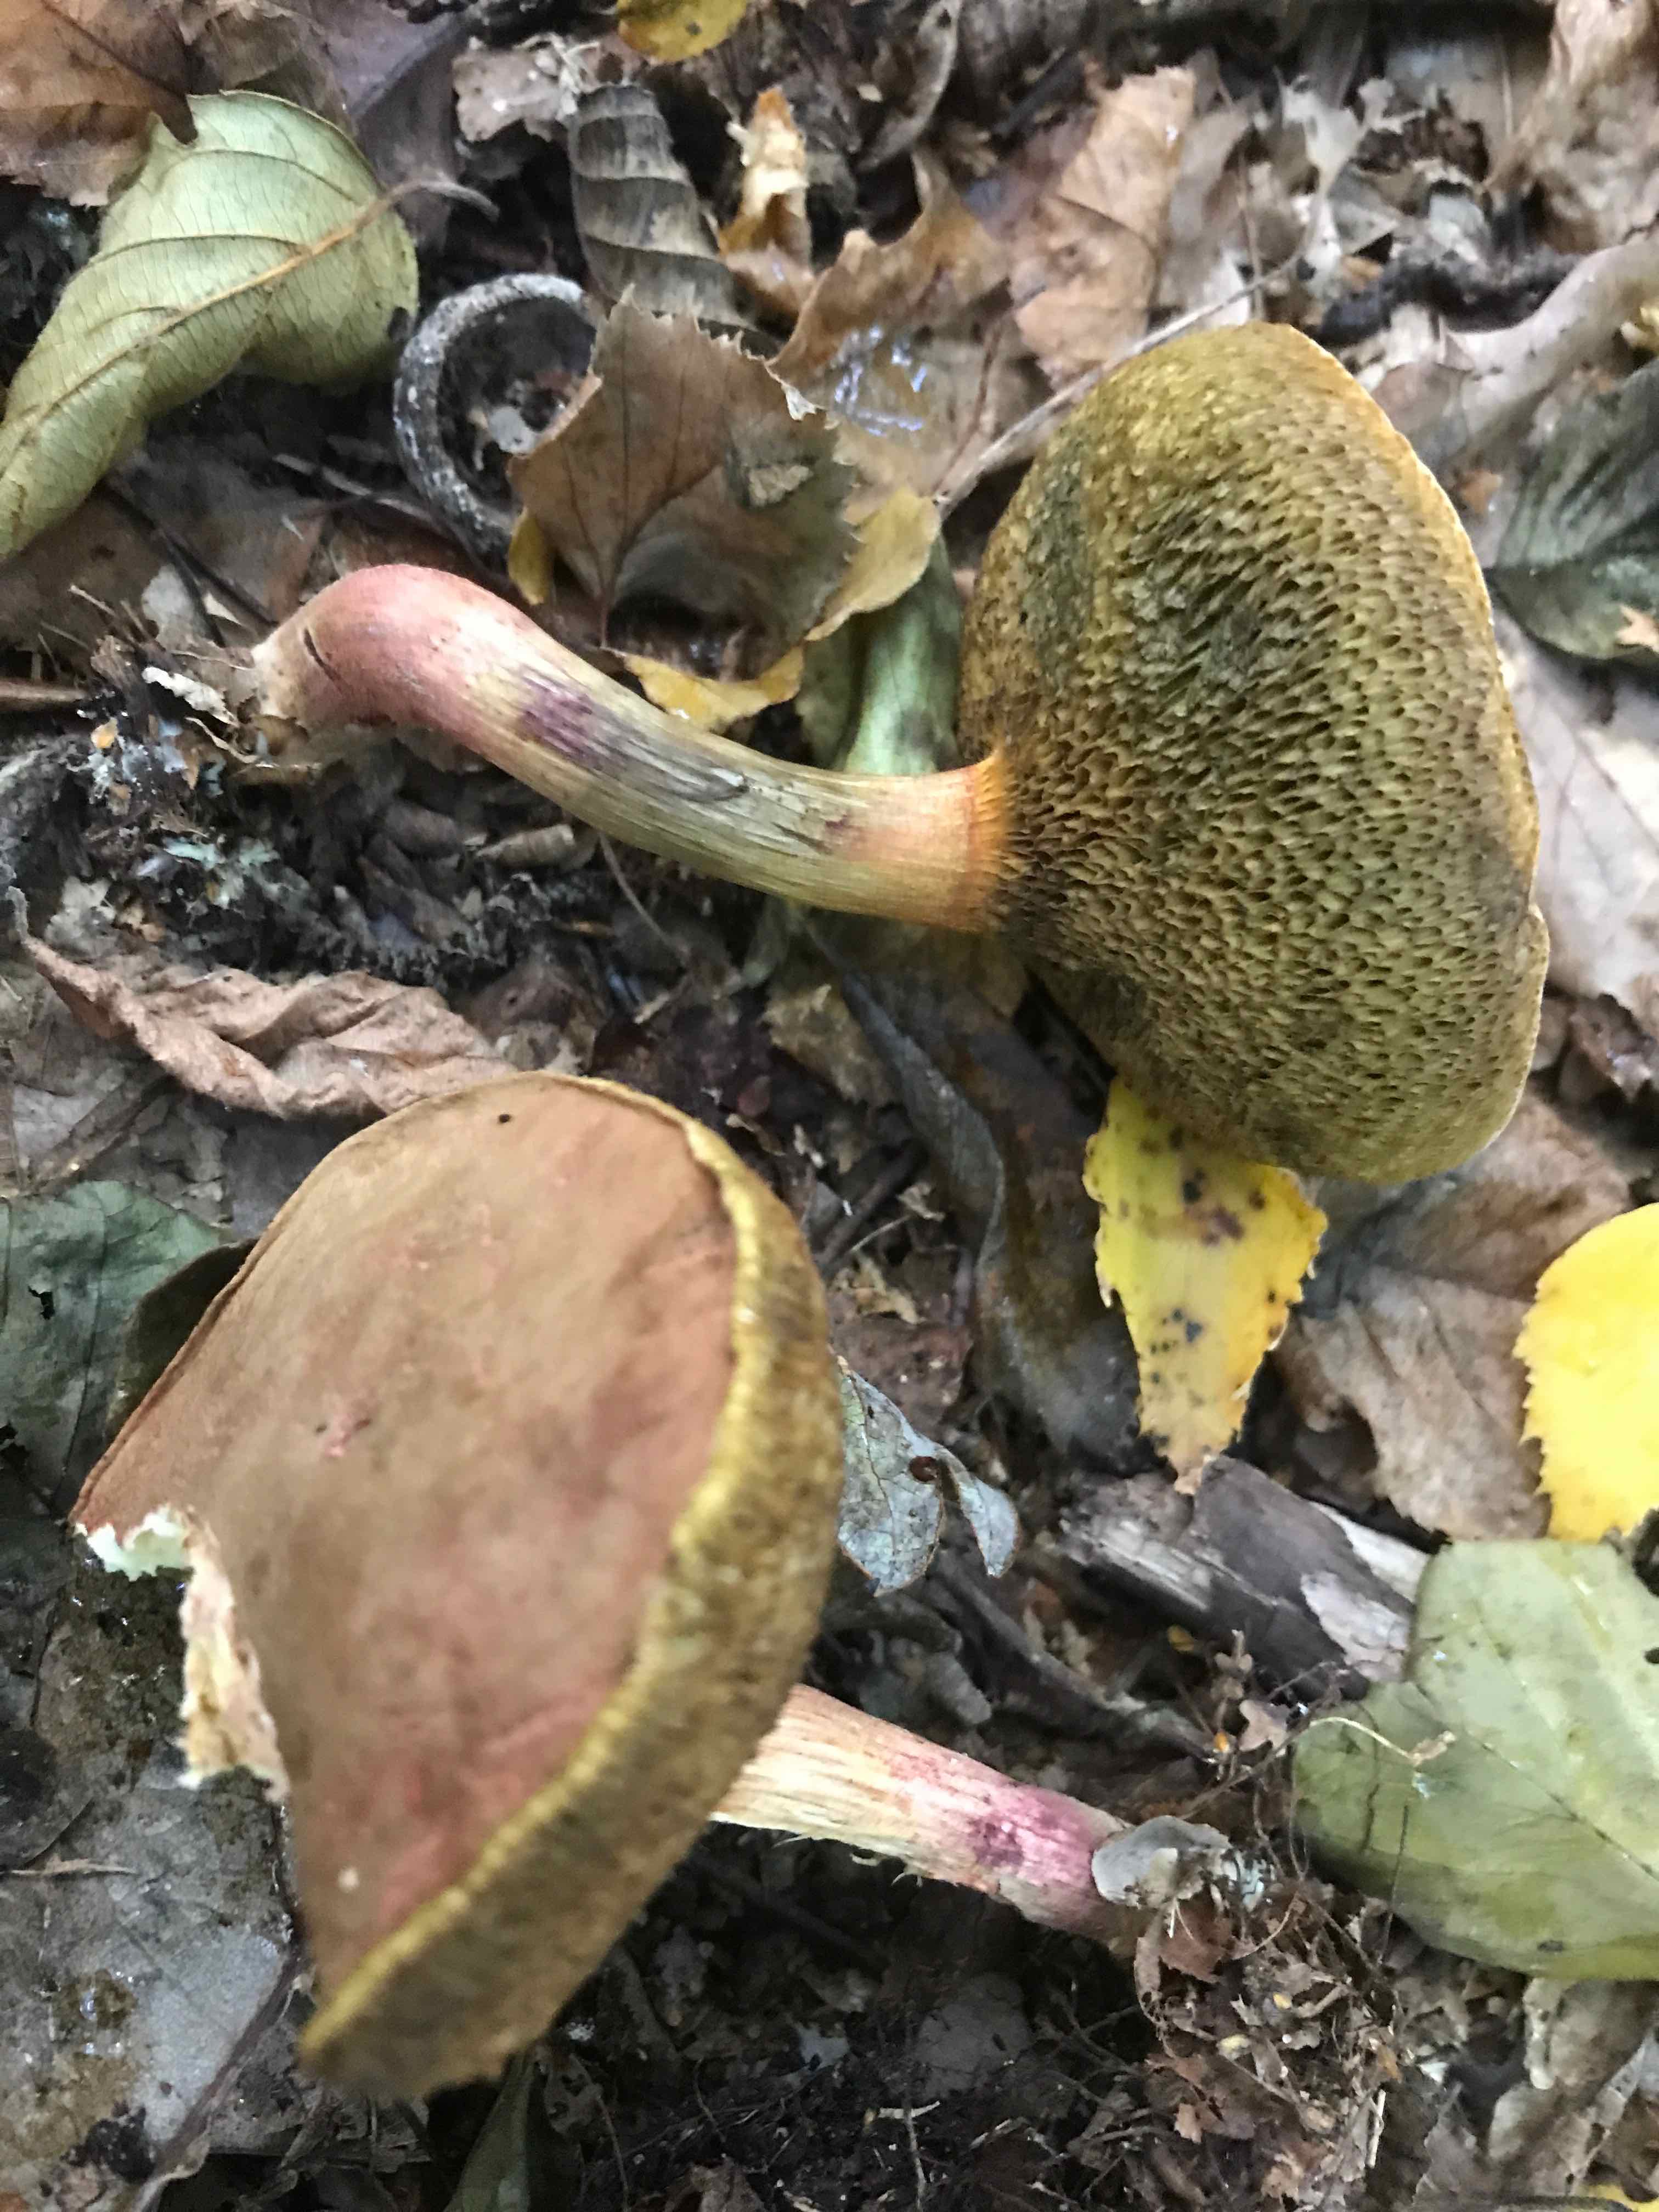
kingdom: Fungi
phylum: Basidiomycota
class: Agaricomycetes
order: Boletales
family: Boletaceae
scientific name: Boletaceae
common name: rørhatfamilien
